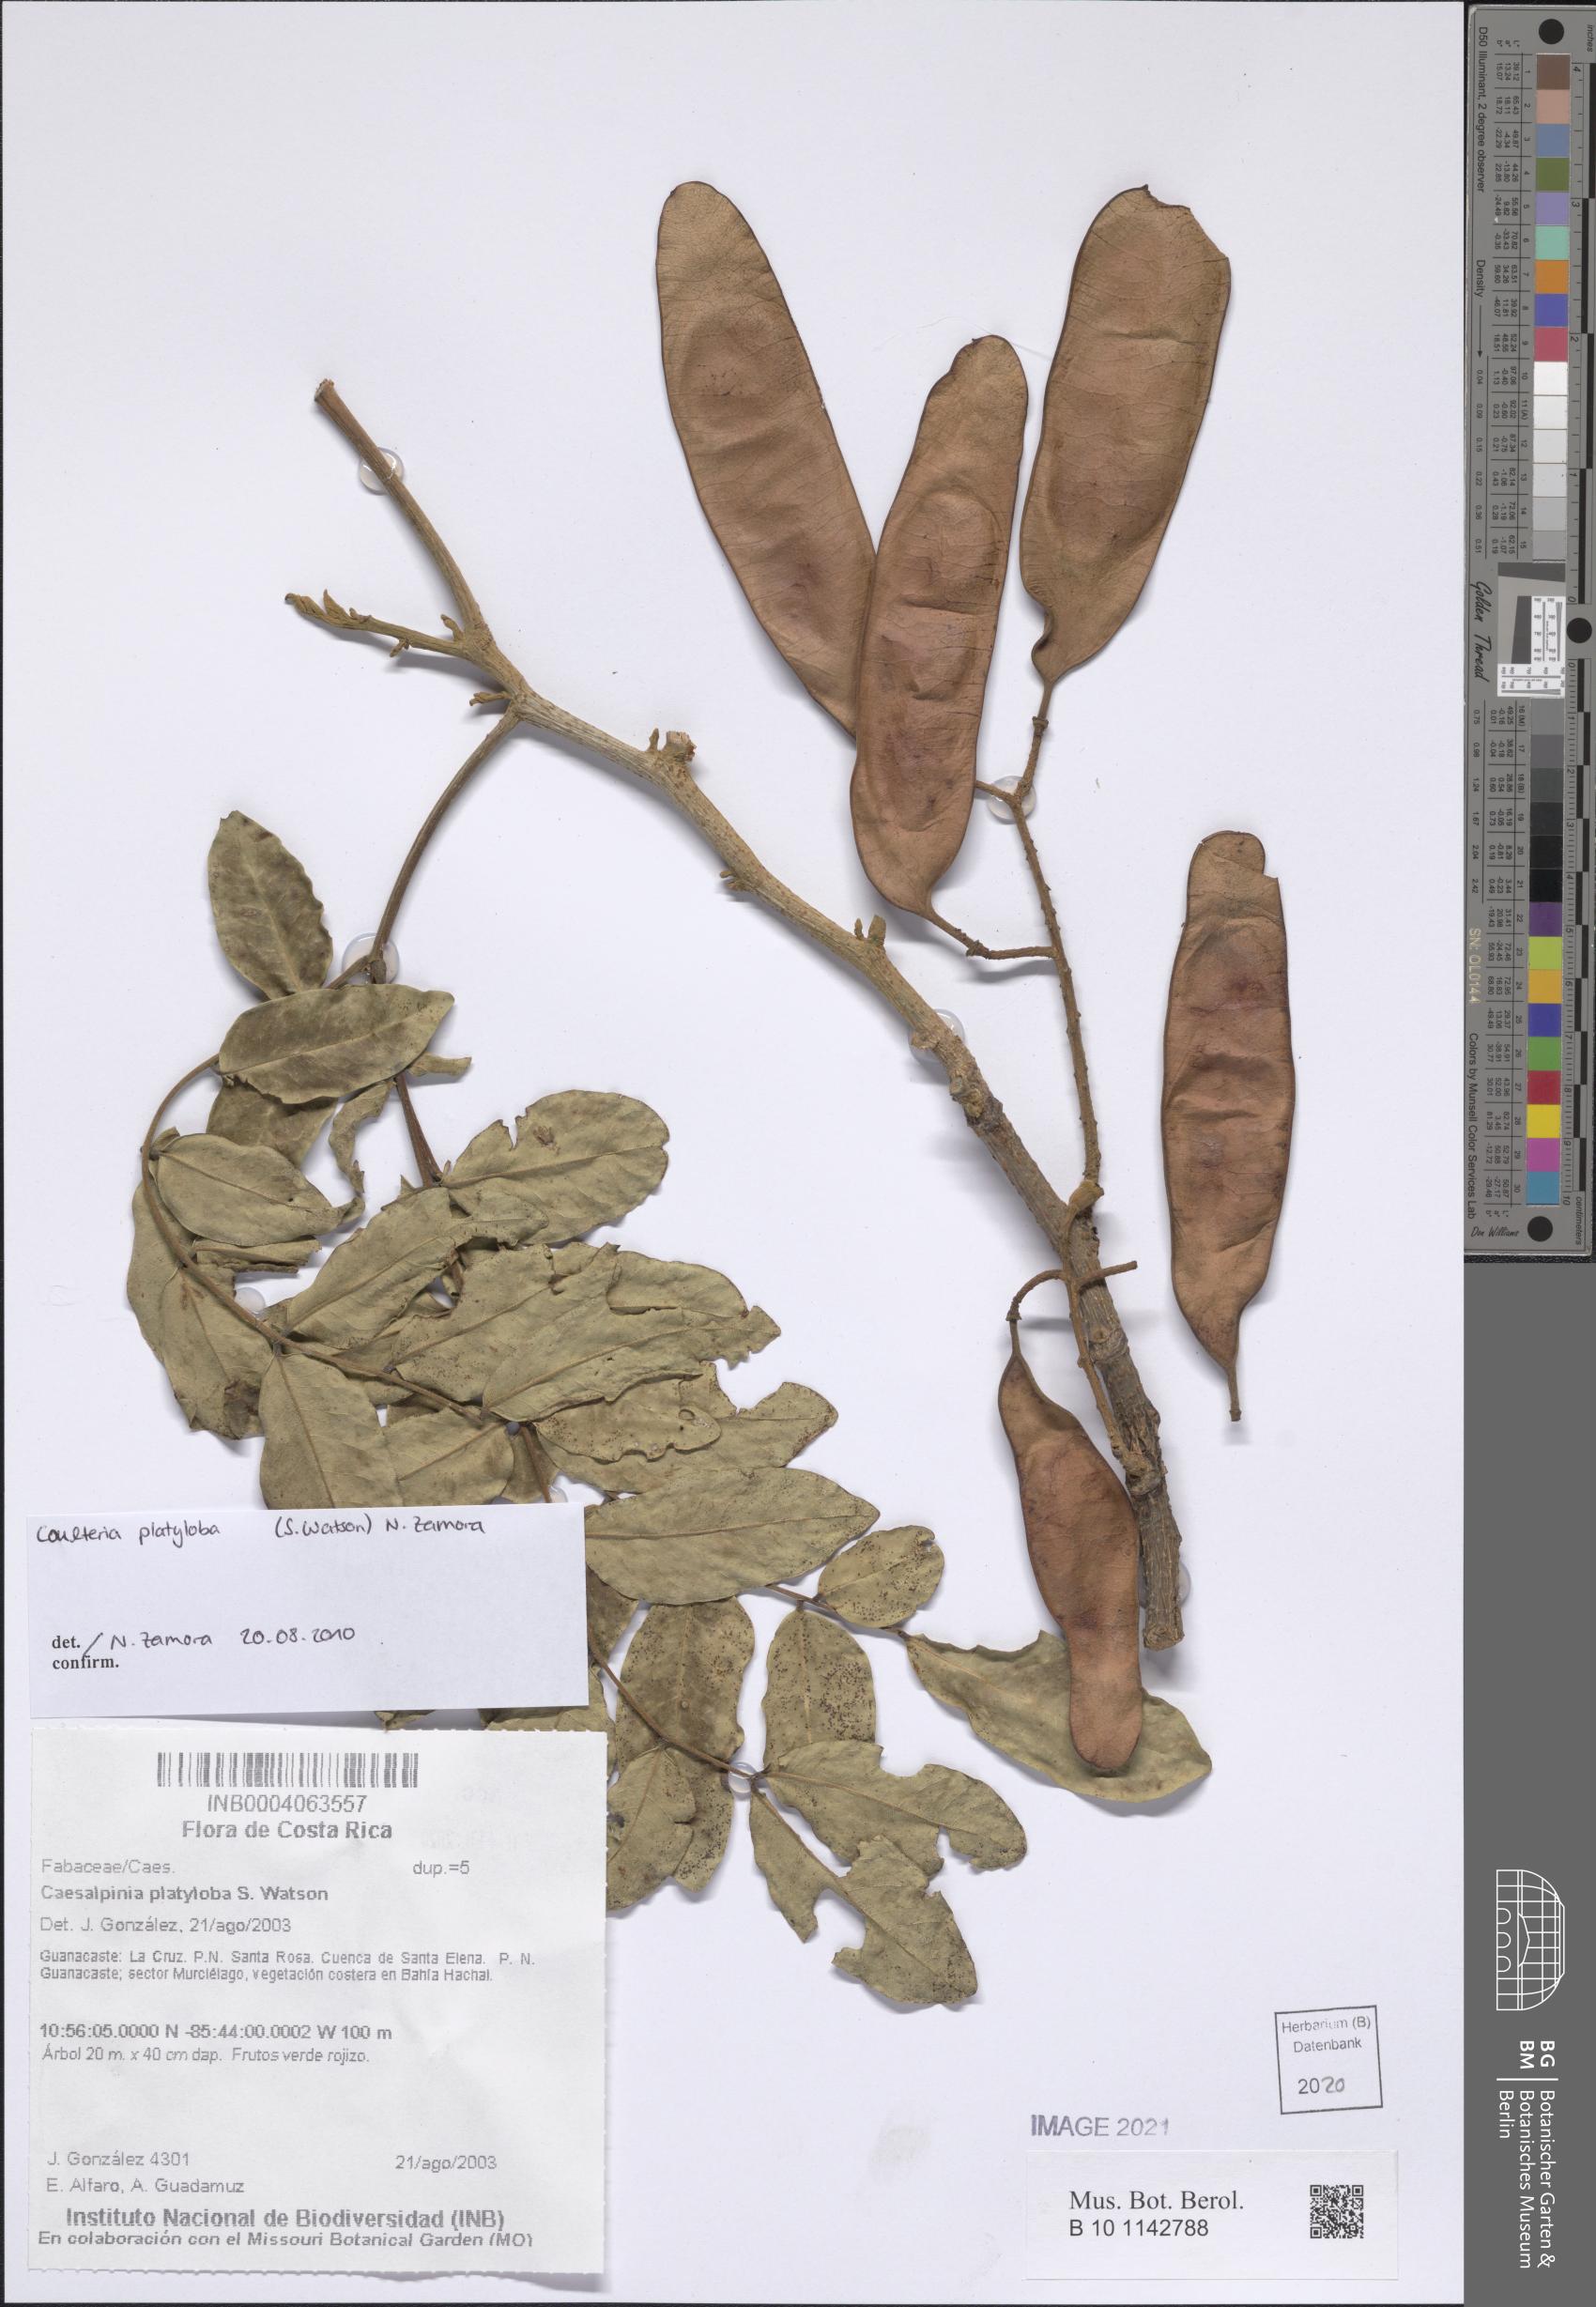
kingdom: Plantae
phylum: Tracheophyta
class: Magnoliopsida
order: Fabales
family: Fabaceae
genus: Coulteria
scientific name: Coulteria platyloba
